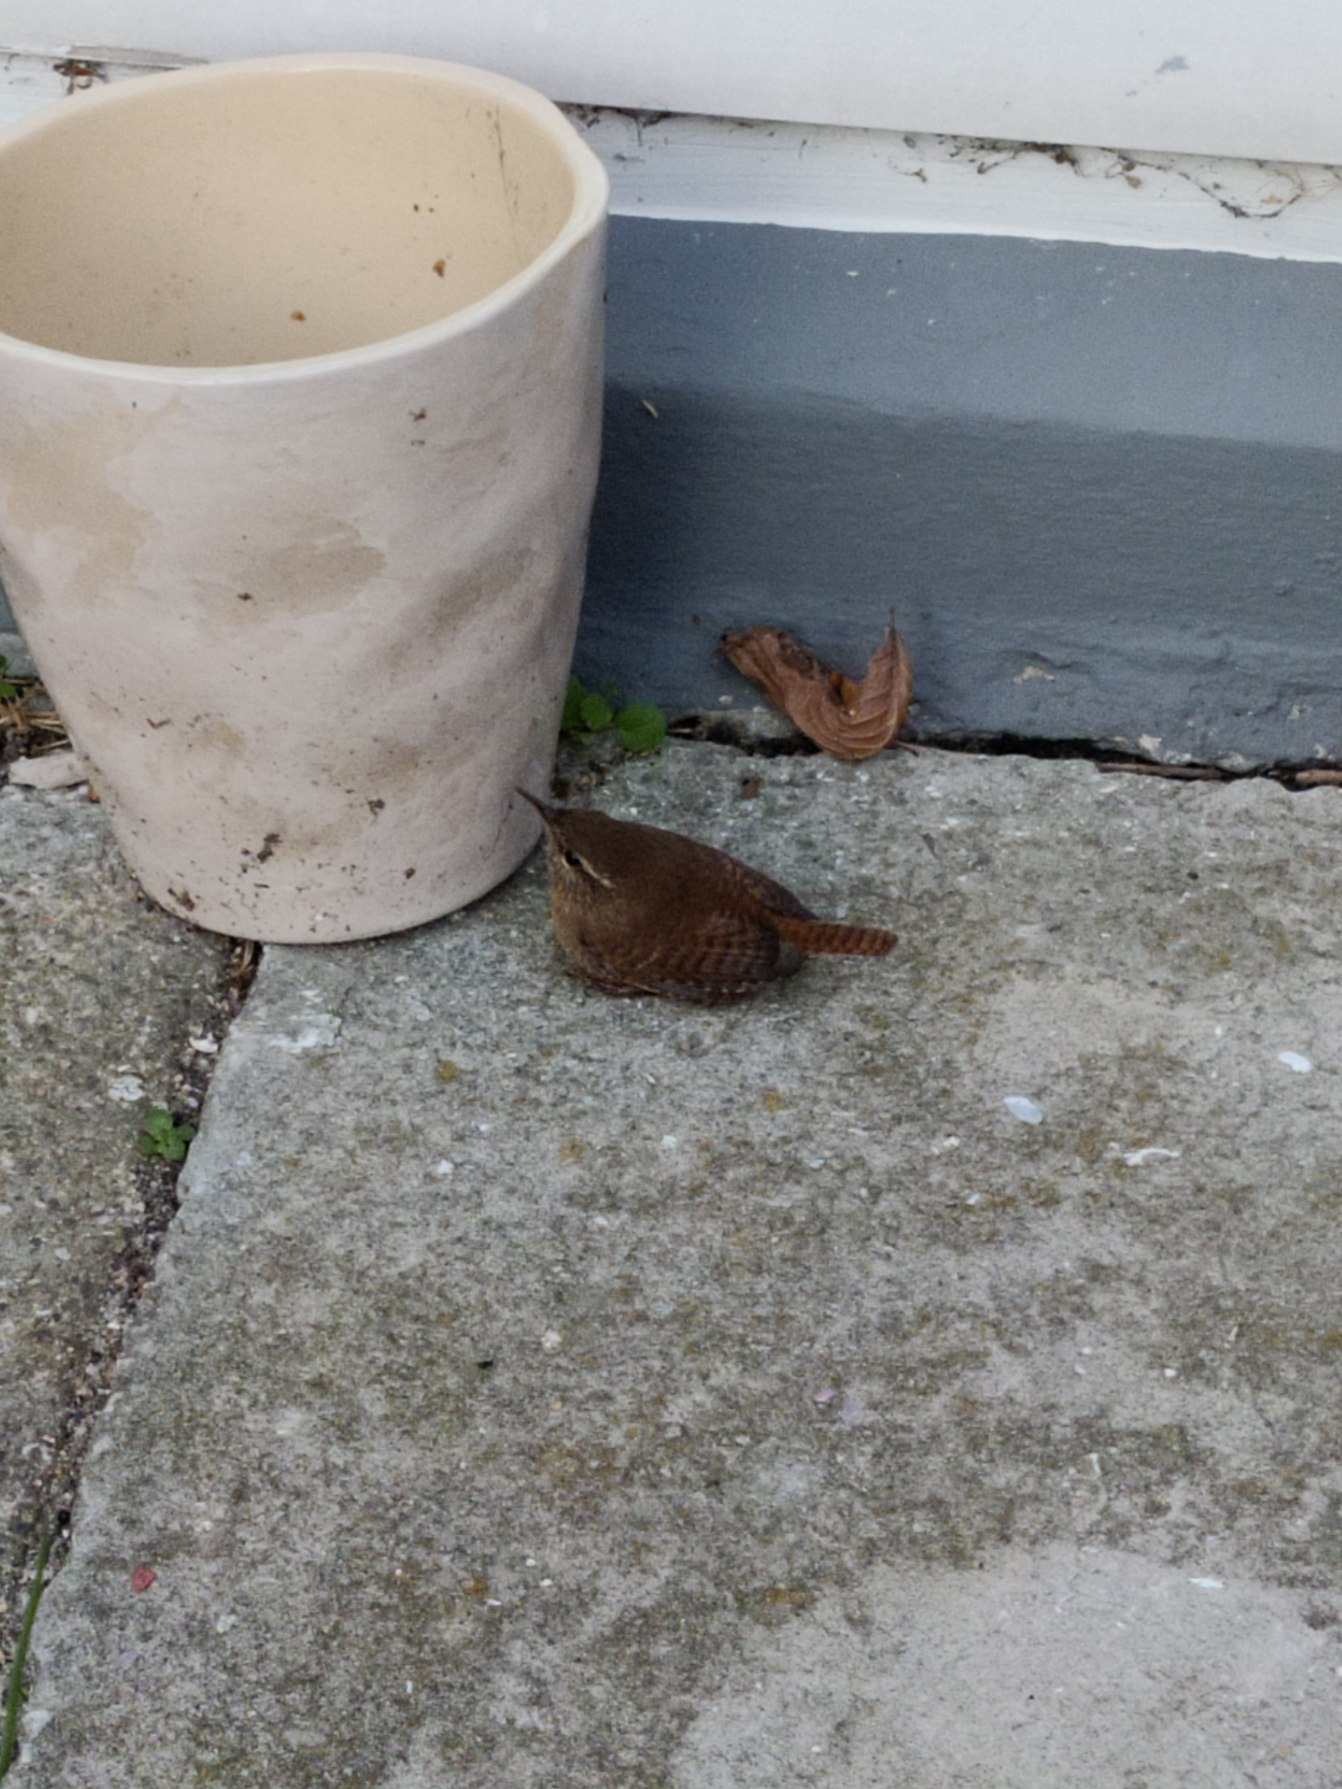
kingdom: Animalia
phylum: Chordata
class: Aves
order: Passeriformes
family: Troglodytidae
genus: Troglodytes
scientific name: Troglodytes troglodytes
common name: Gærdesmutte
